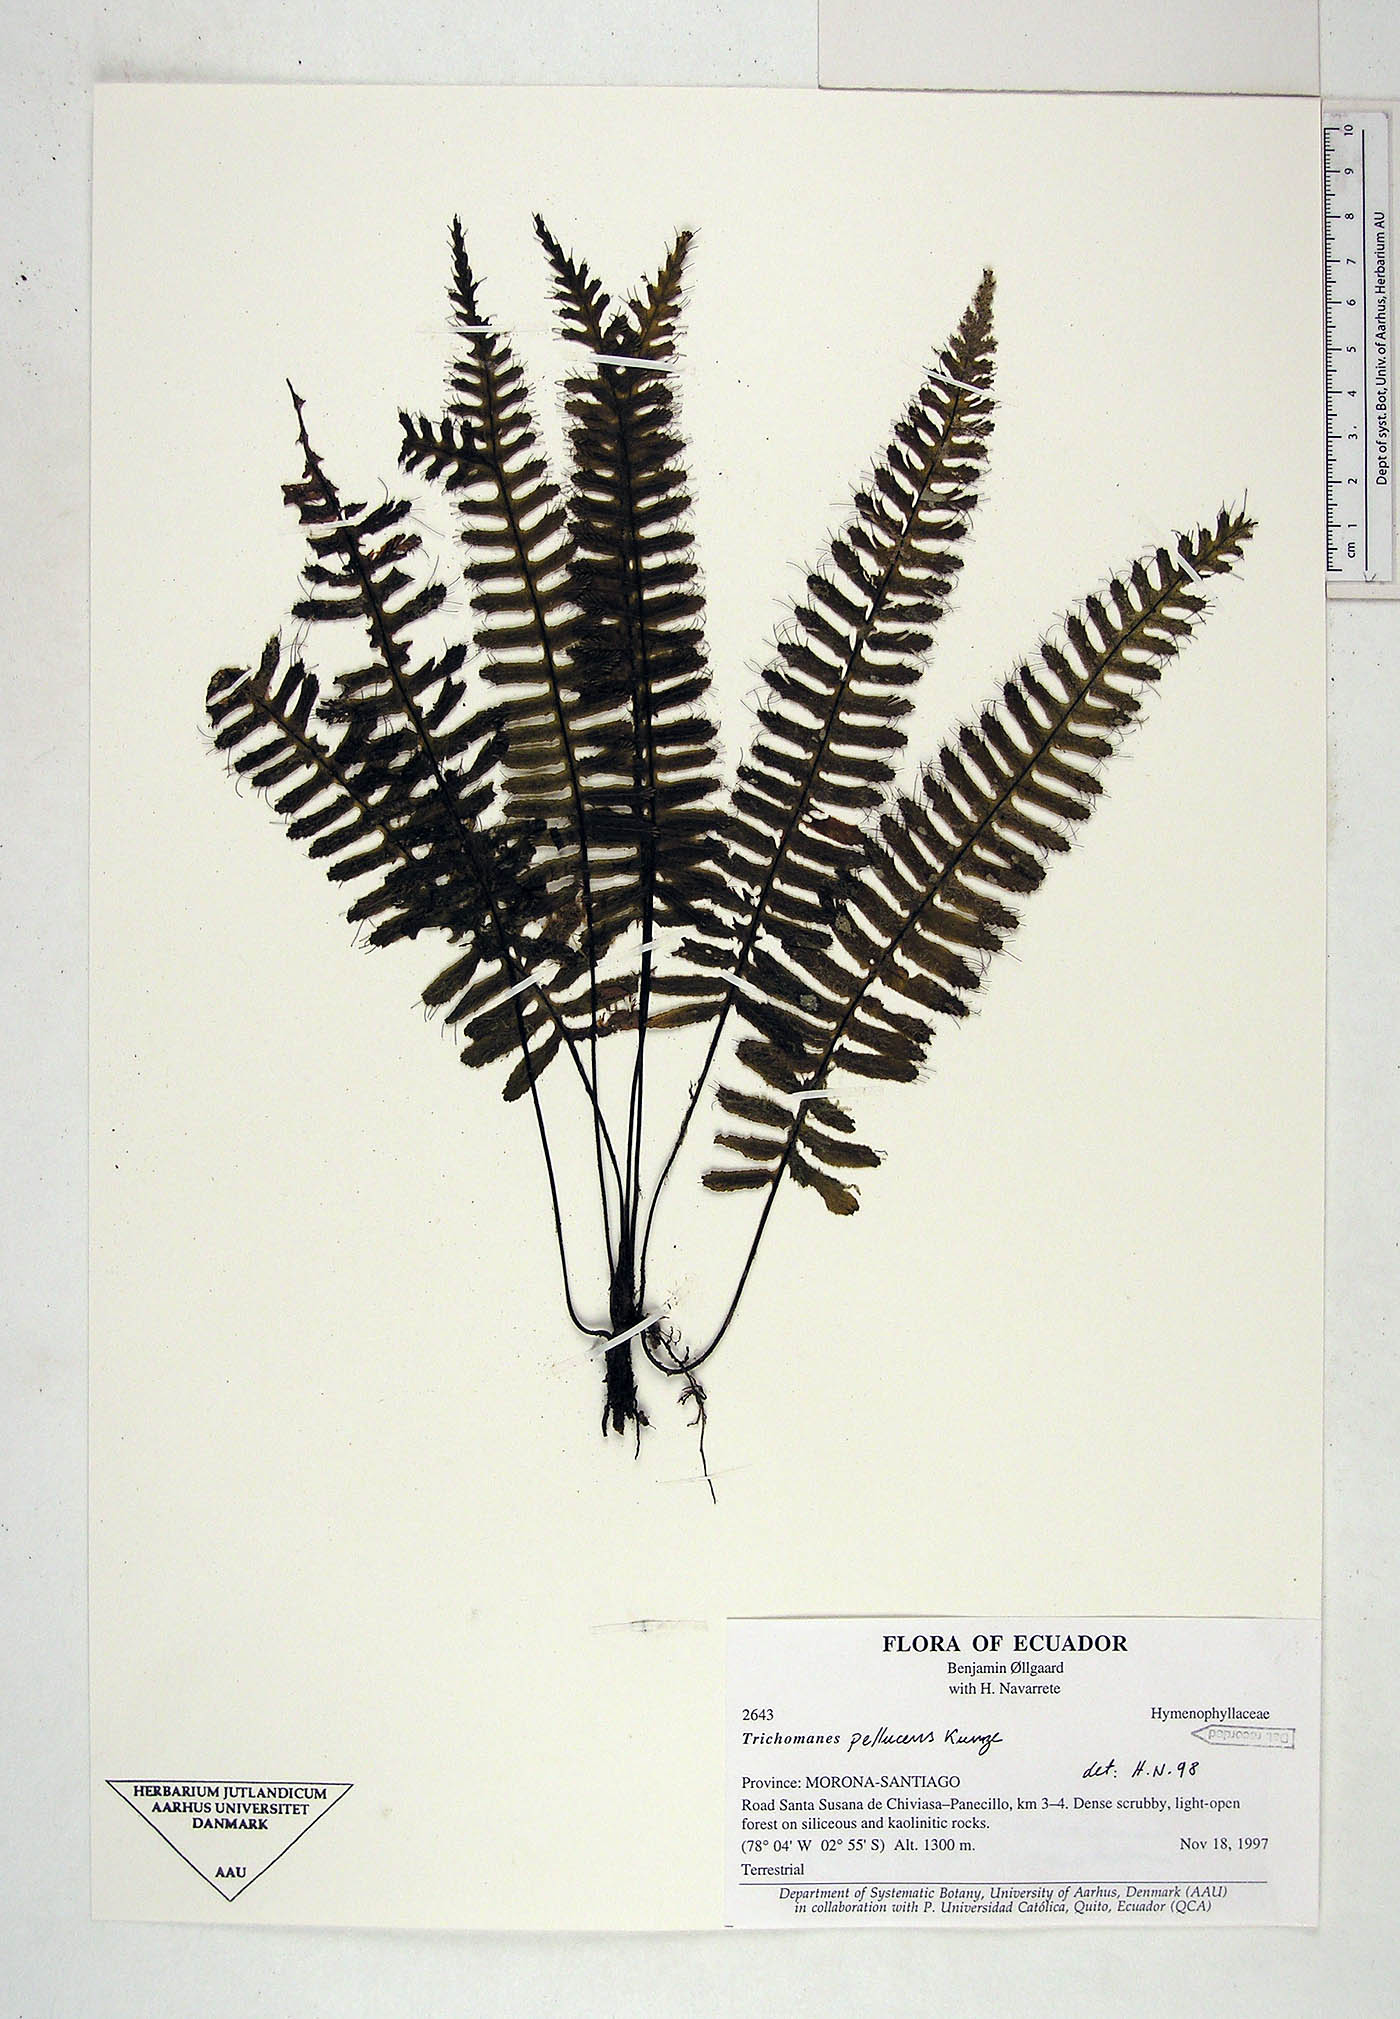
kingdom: Plantae
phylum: Tracheophyta
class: Polypodiopsida
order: Hymenophyllales
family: Hymenophyllaceae
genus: Trichomanes
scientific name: Trichomanes pellucens
